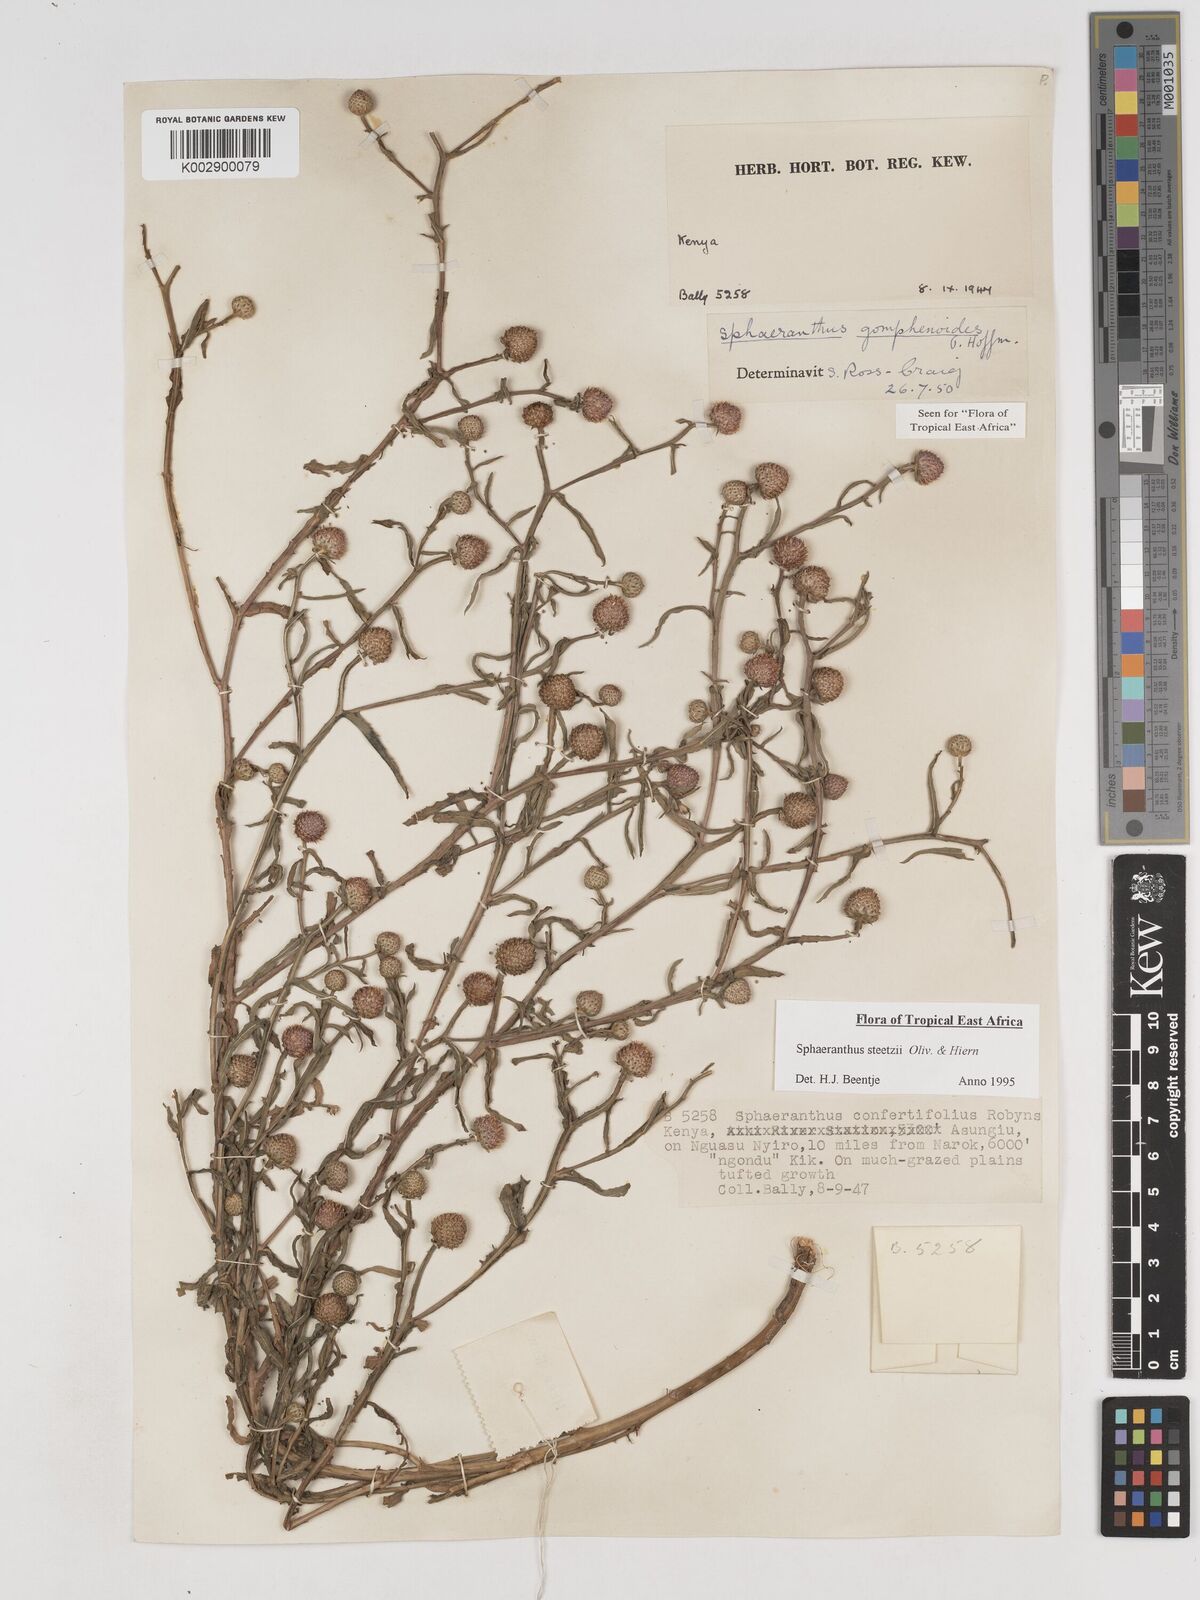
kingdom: Plantae
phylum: Tracheophyta
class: Magnoliopsida
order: Asterales
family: Asteraceae
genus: Sphaeranthus
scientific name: Sphaeranthus steetzii
